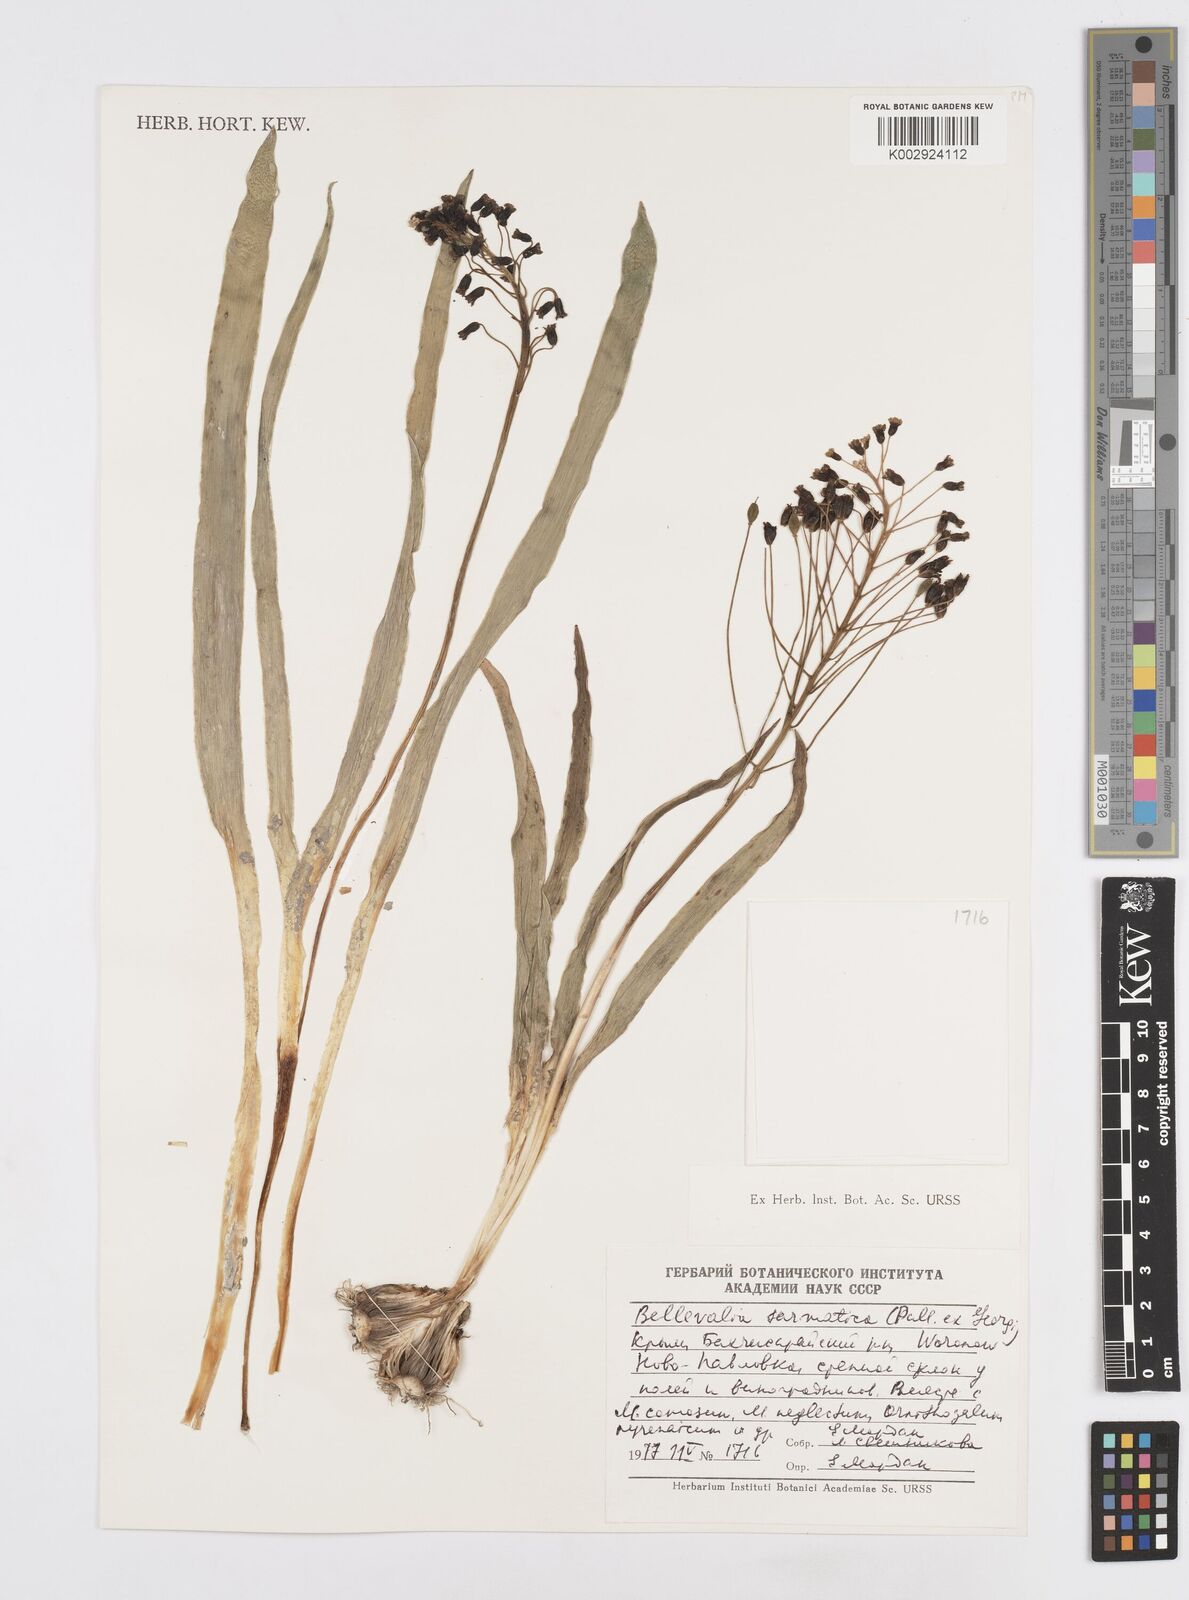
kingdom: Plantae
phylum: Tracheophyta
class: Liliopsida
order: Asparagales
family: Asparagaceae
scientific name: Asparagaceae
